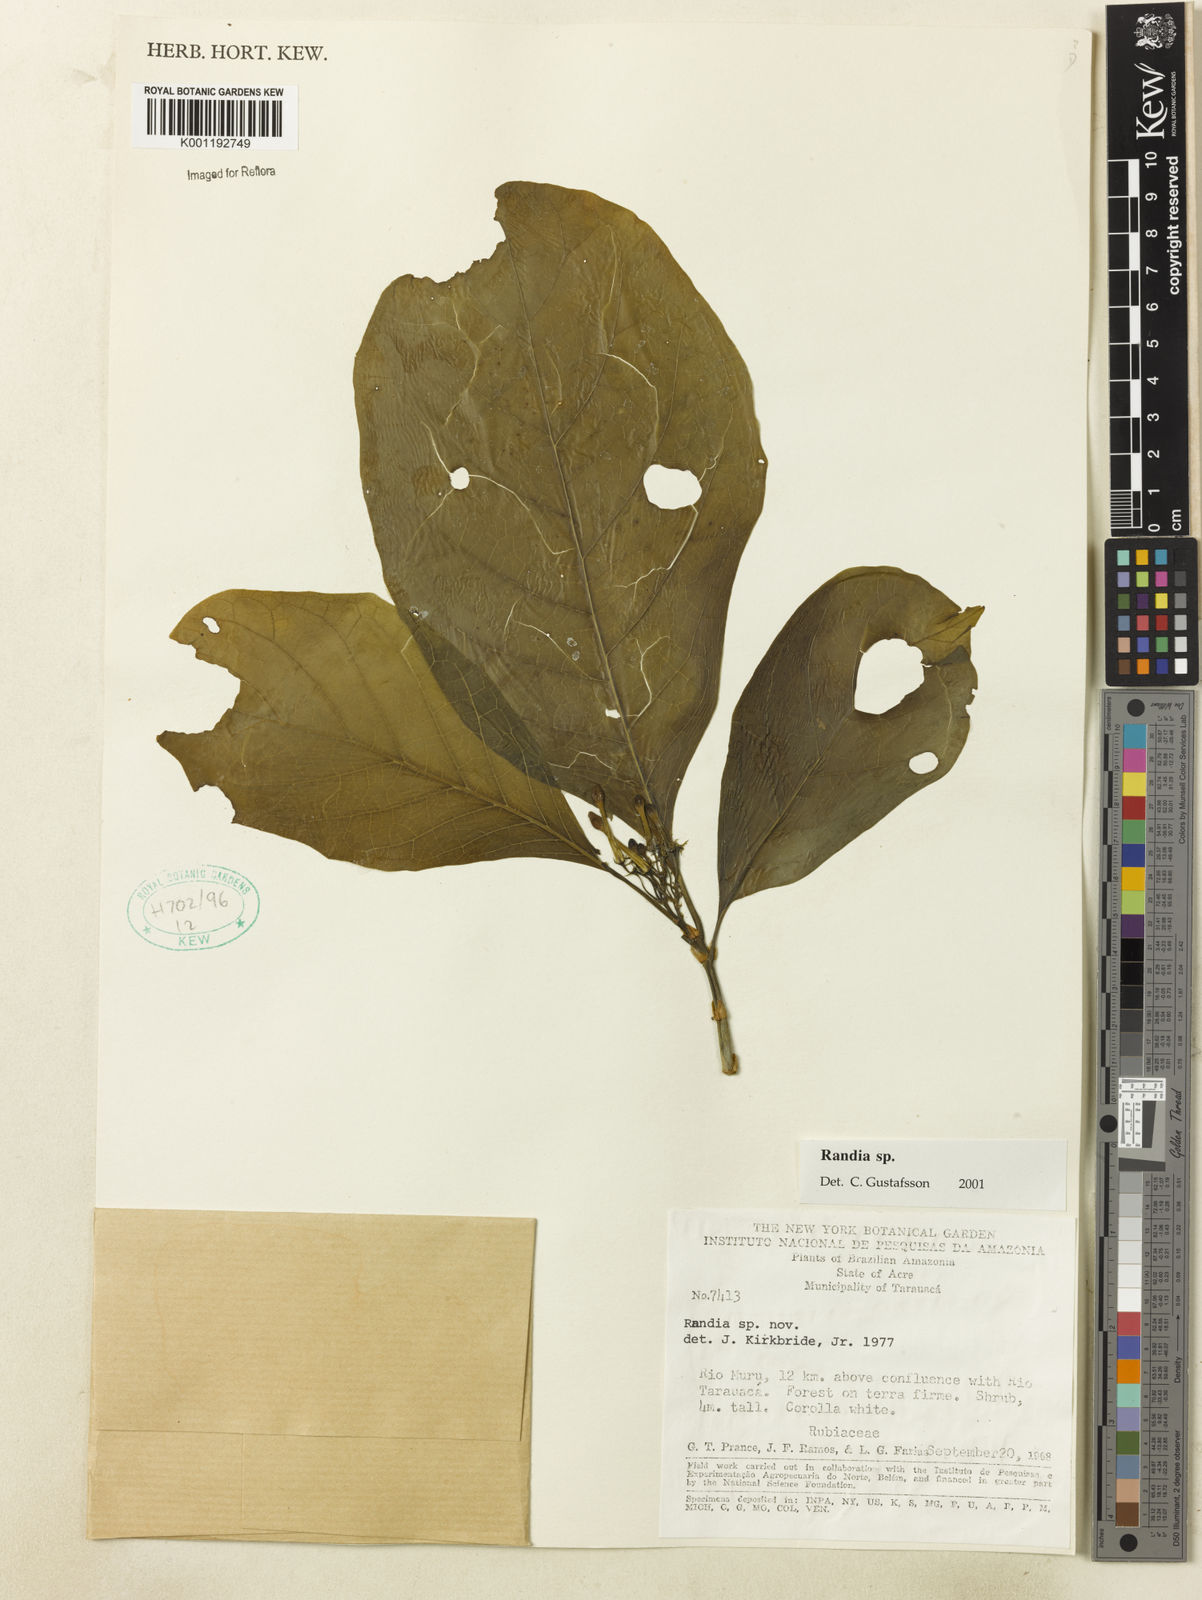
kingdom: Plantae
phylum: Tracheophyta
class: Magnoliopsida
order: Gentianales
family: Rubiaceae
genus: Randia
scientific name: Randia
